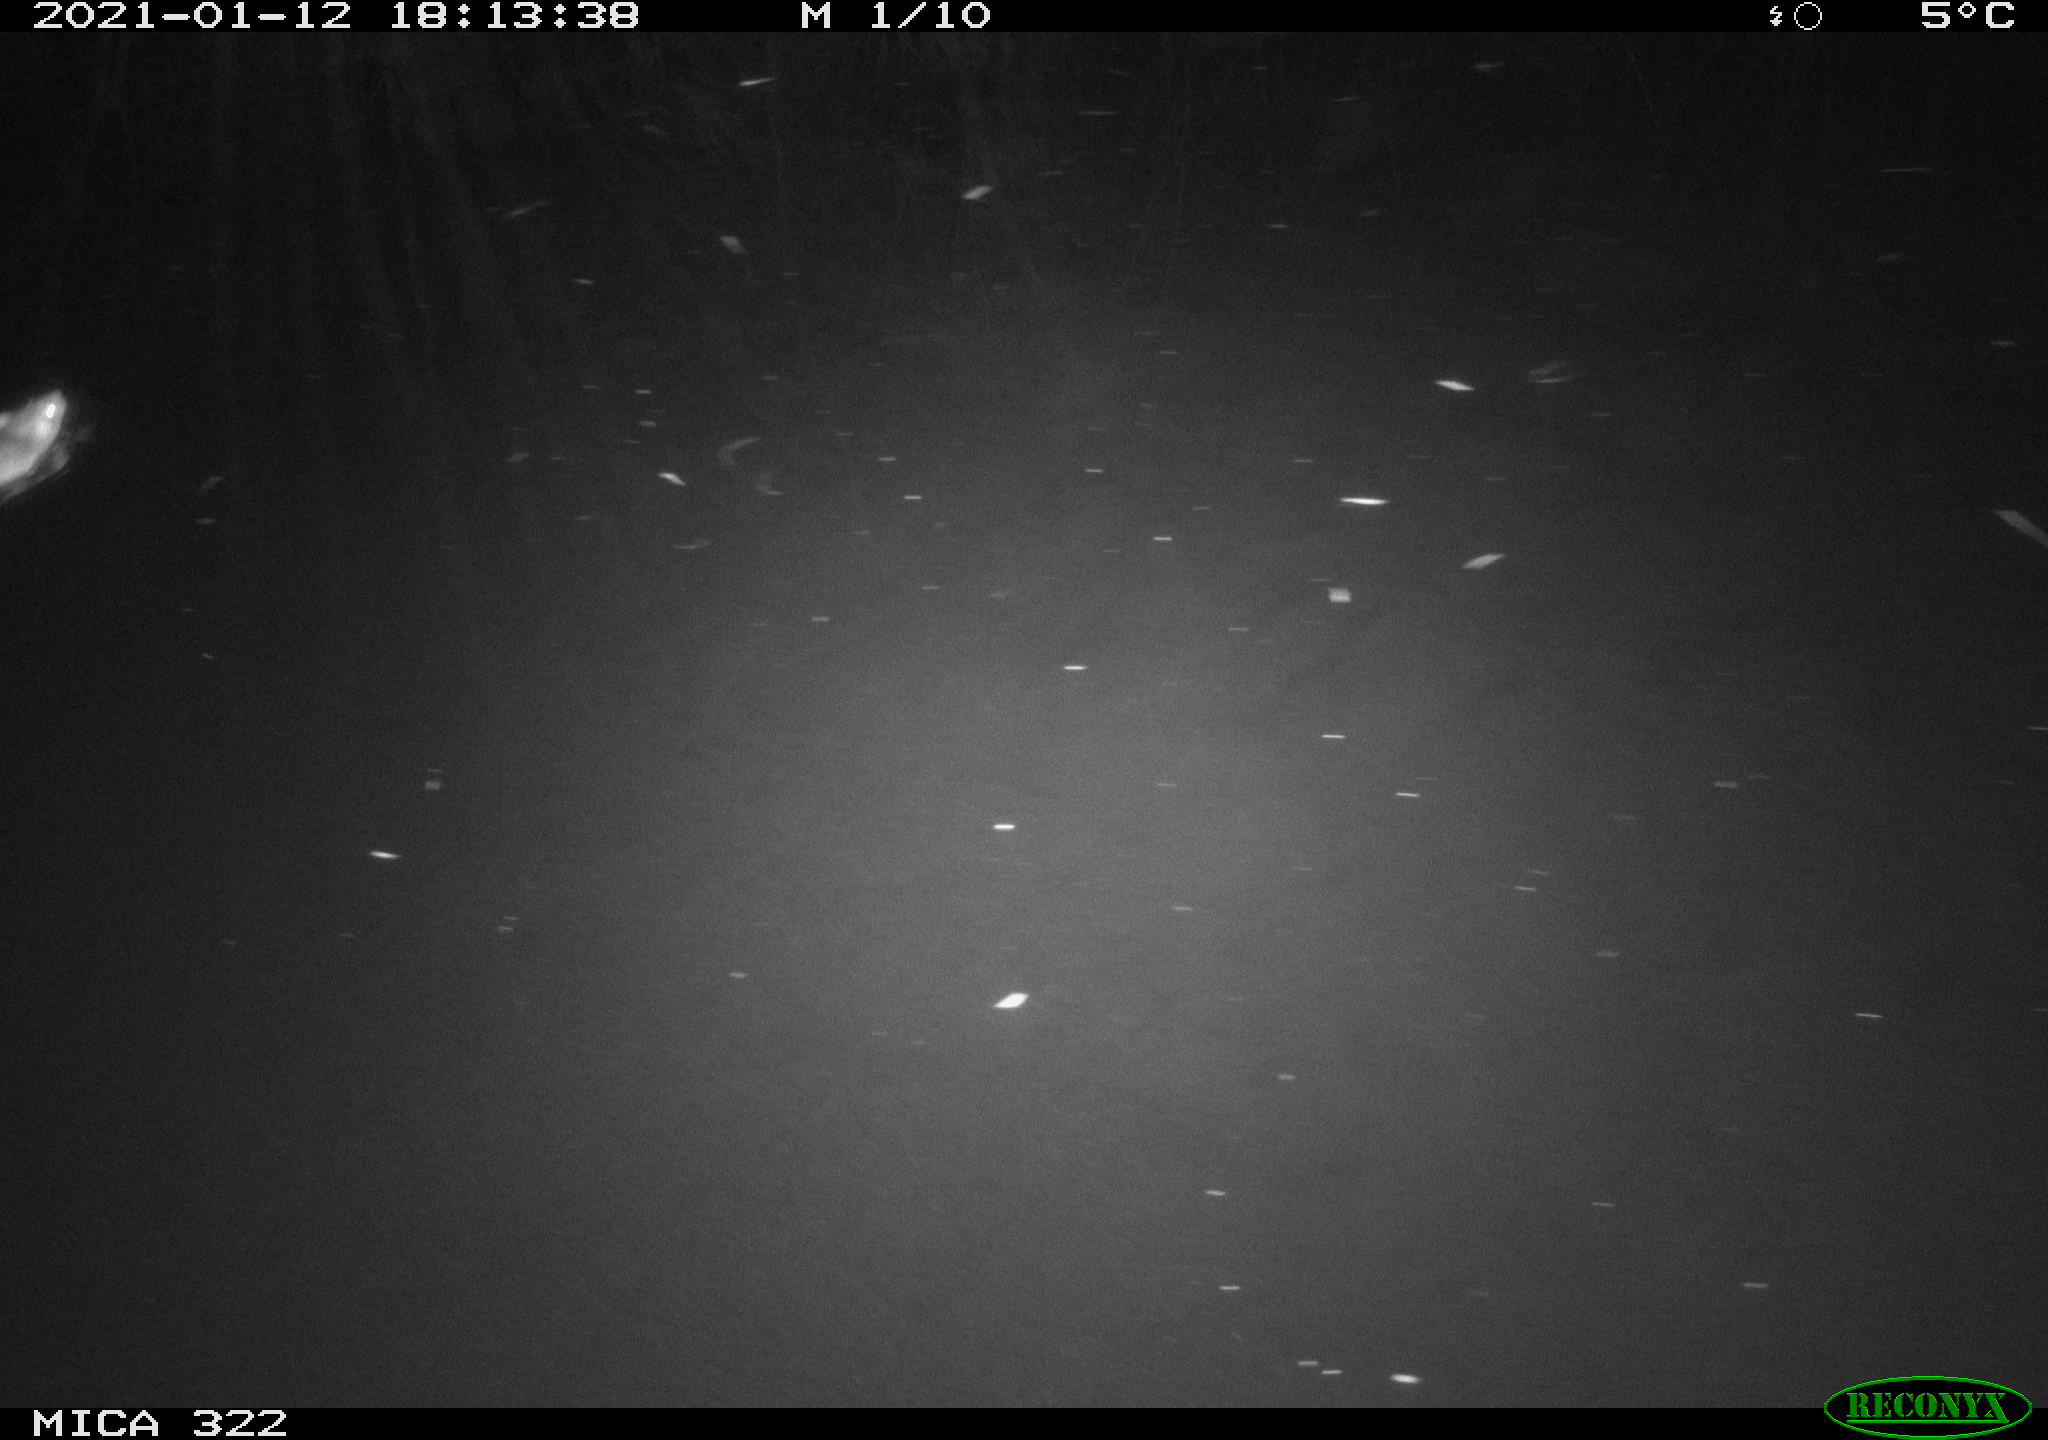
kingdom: Animalia
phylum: Chordata
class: Mammalia
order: Rodentia
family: Muridae
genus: Rattus
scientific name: Rattus norvegicus
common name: Brown rat
